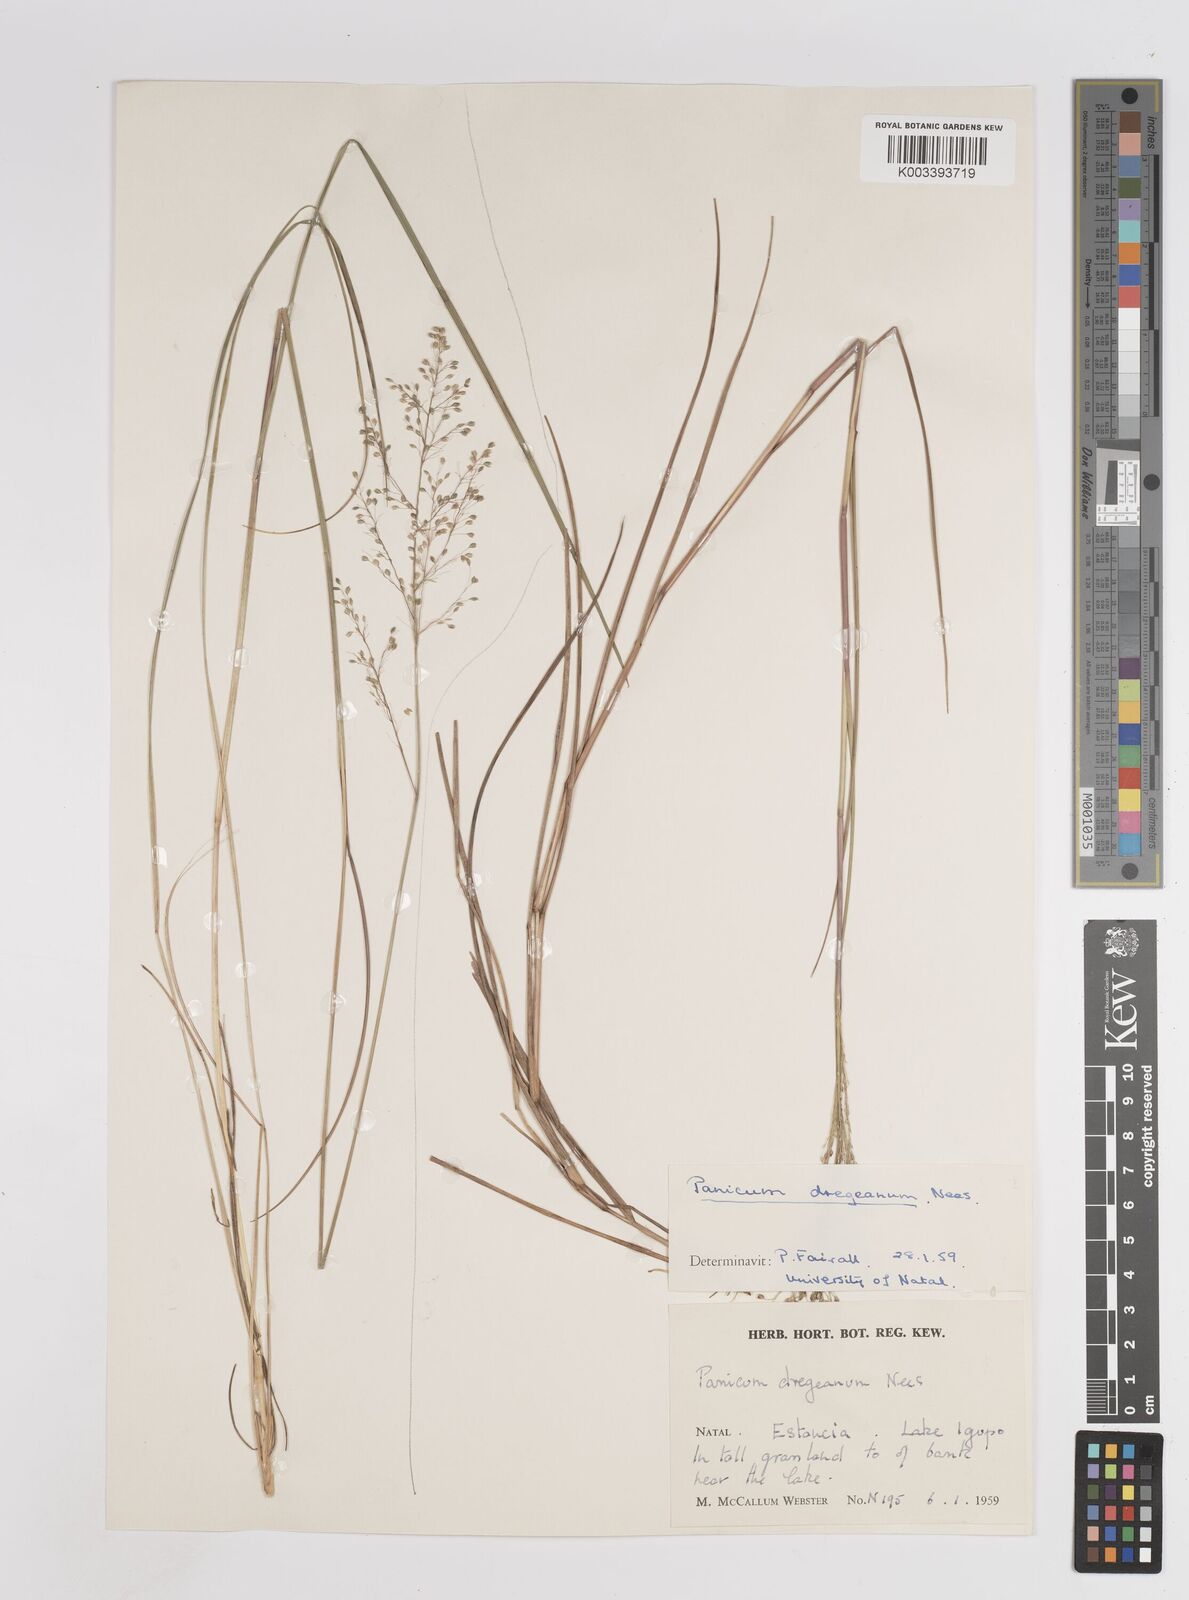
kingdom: Plantae
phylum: Tracheophyta
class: Liliopsida
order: Poales
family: Poaceae
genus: Panicum
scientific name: Panicum dregeanum
